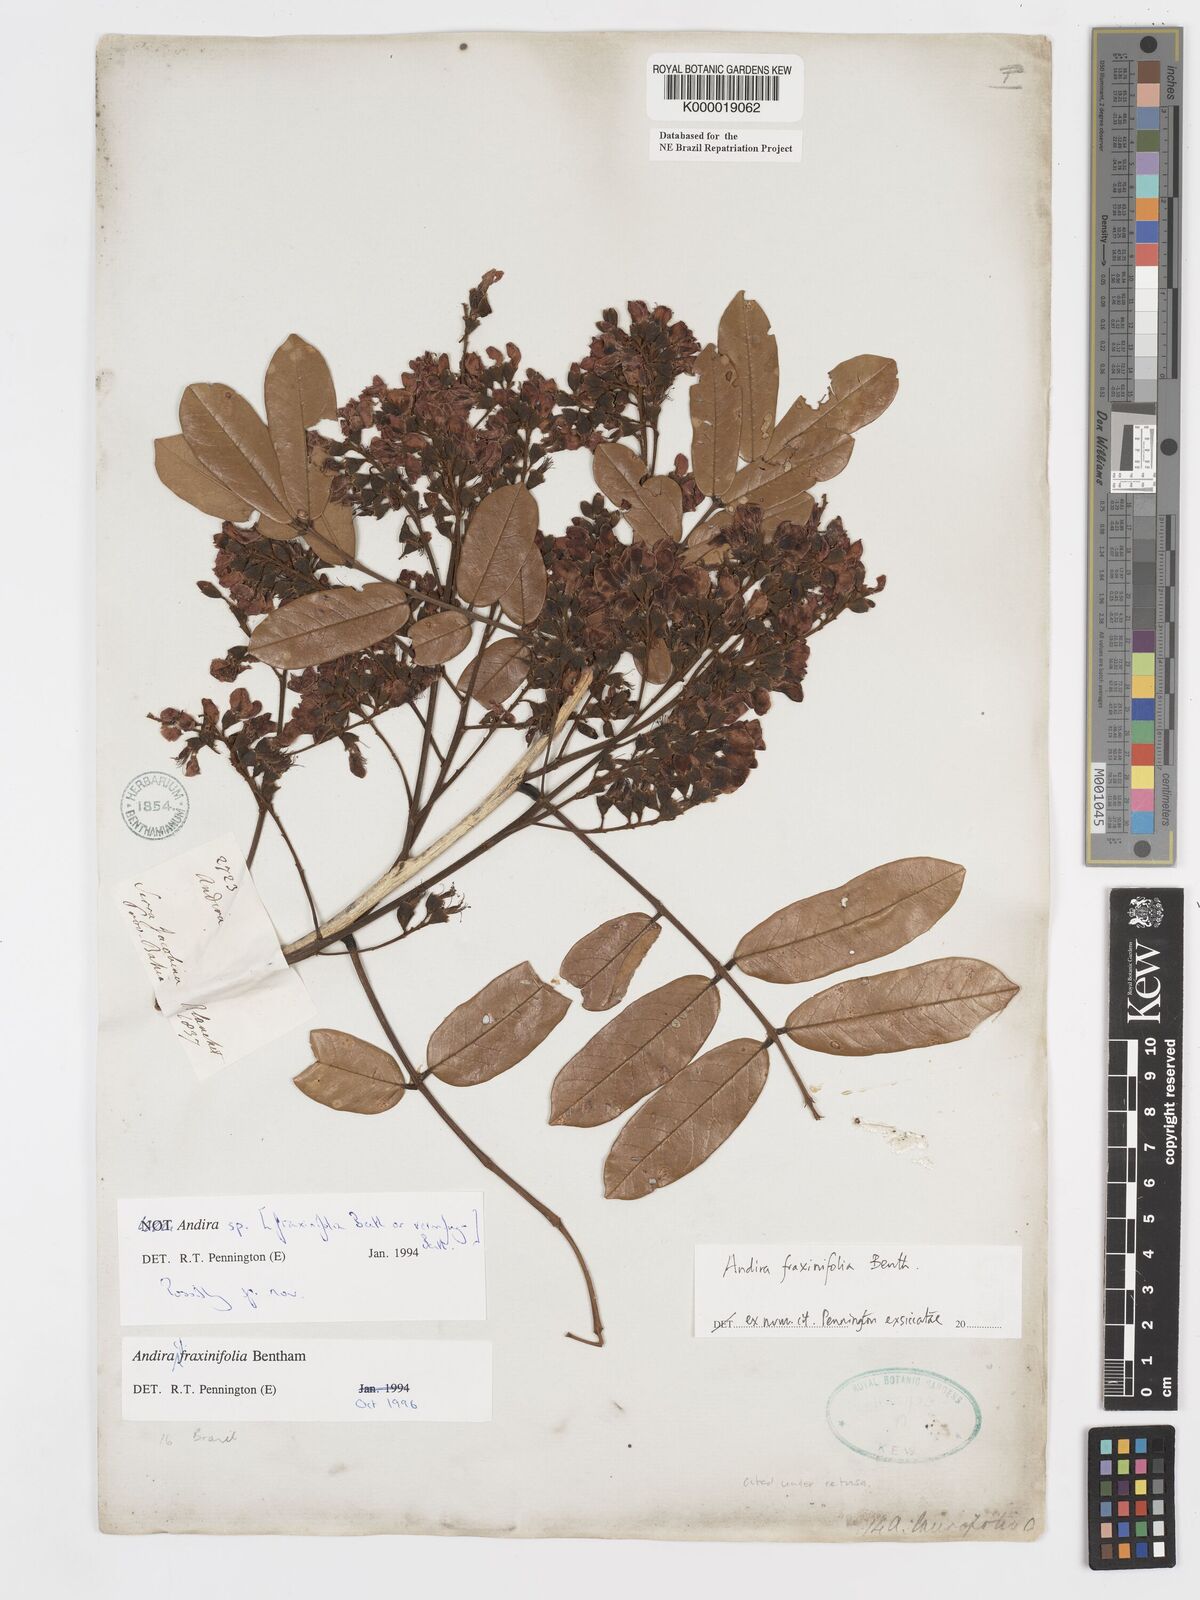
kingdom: Plantae
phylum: Tracheophyta
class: Magnoliopsida
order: Fabales
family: Fabaceae
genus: Andira
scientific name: Andira fraxinifolia
